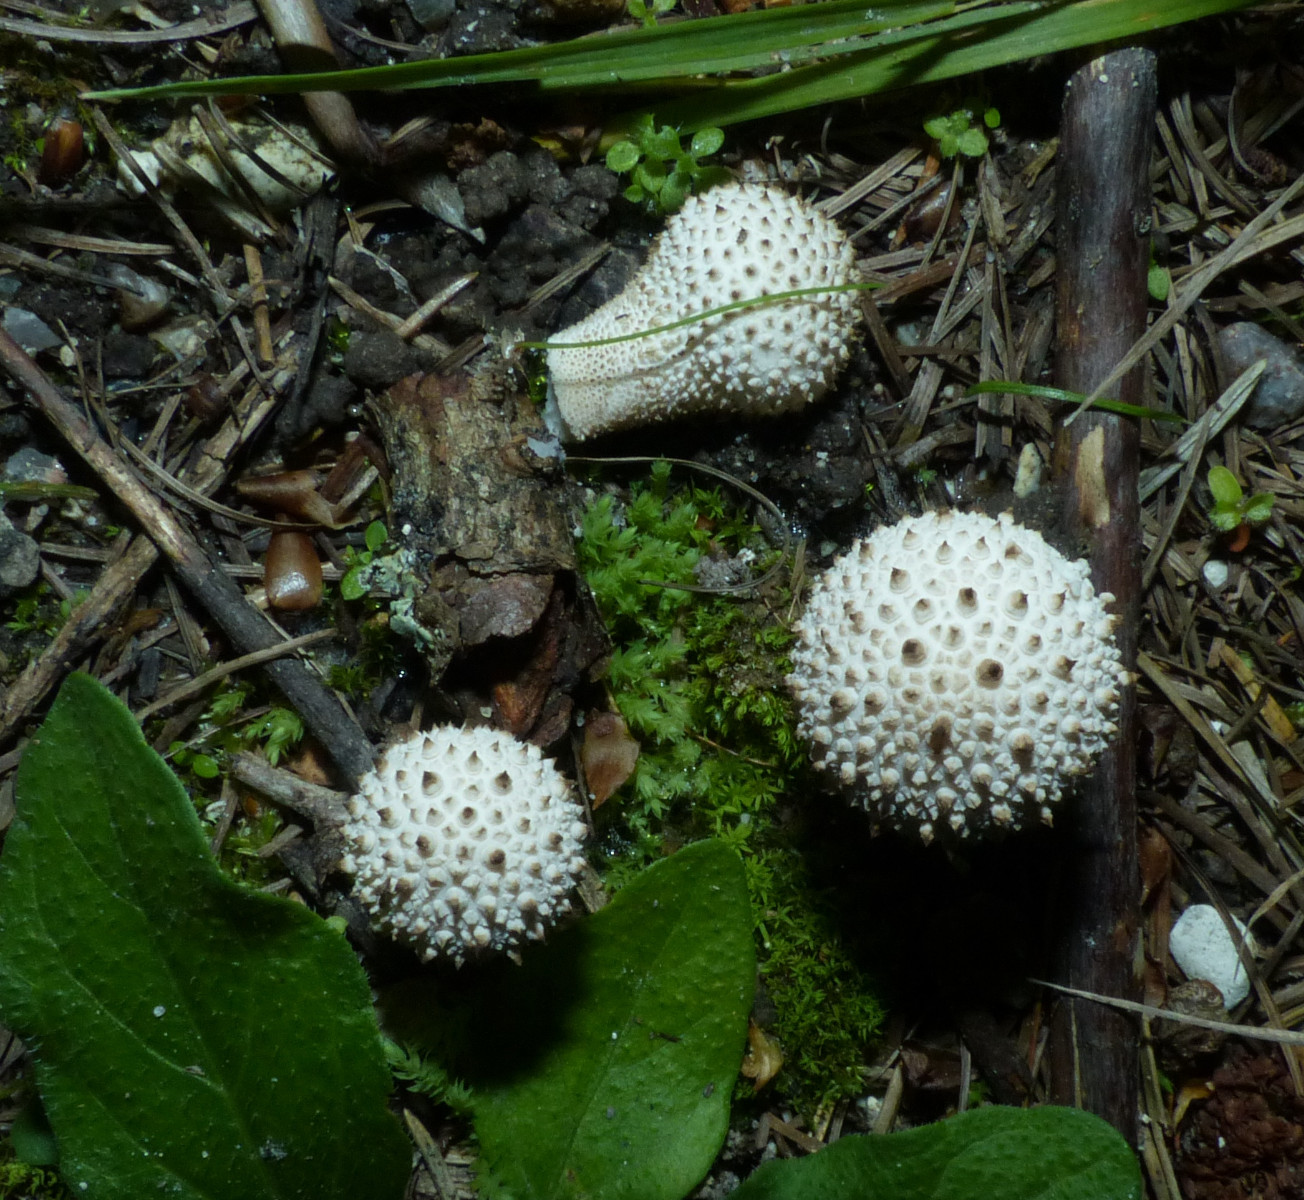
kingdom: Fungi
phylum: Basidiomycota
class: Agaricomycetes
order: Agaricales
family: Lycoperdaceae
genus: Lycoperdon
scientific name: Lycoperdon perlatum
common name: krystal-støvbold
